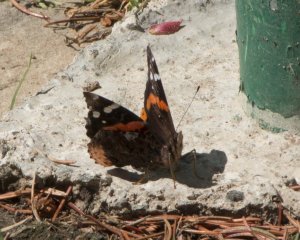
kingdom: Animalia
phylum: Arthropoda
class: Insecta
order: Lepidoptera
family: Nymphalidae
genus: Vanessa
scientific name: Vanessa atalanta
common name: Red Admiral
